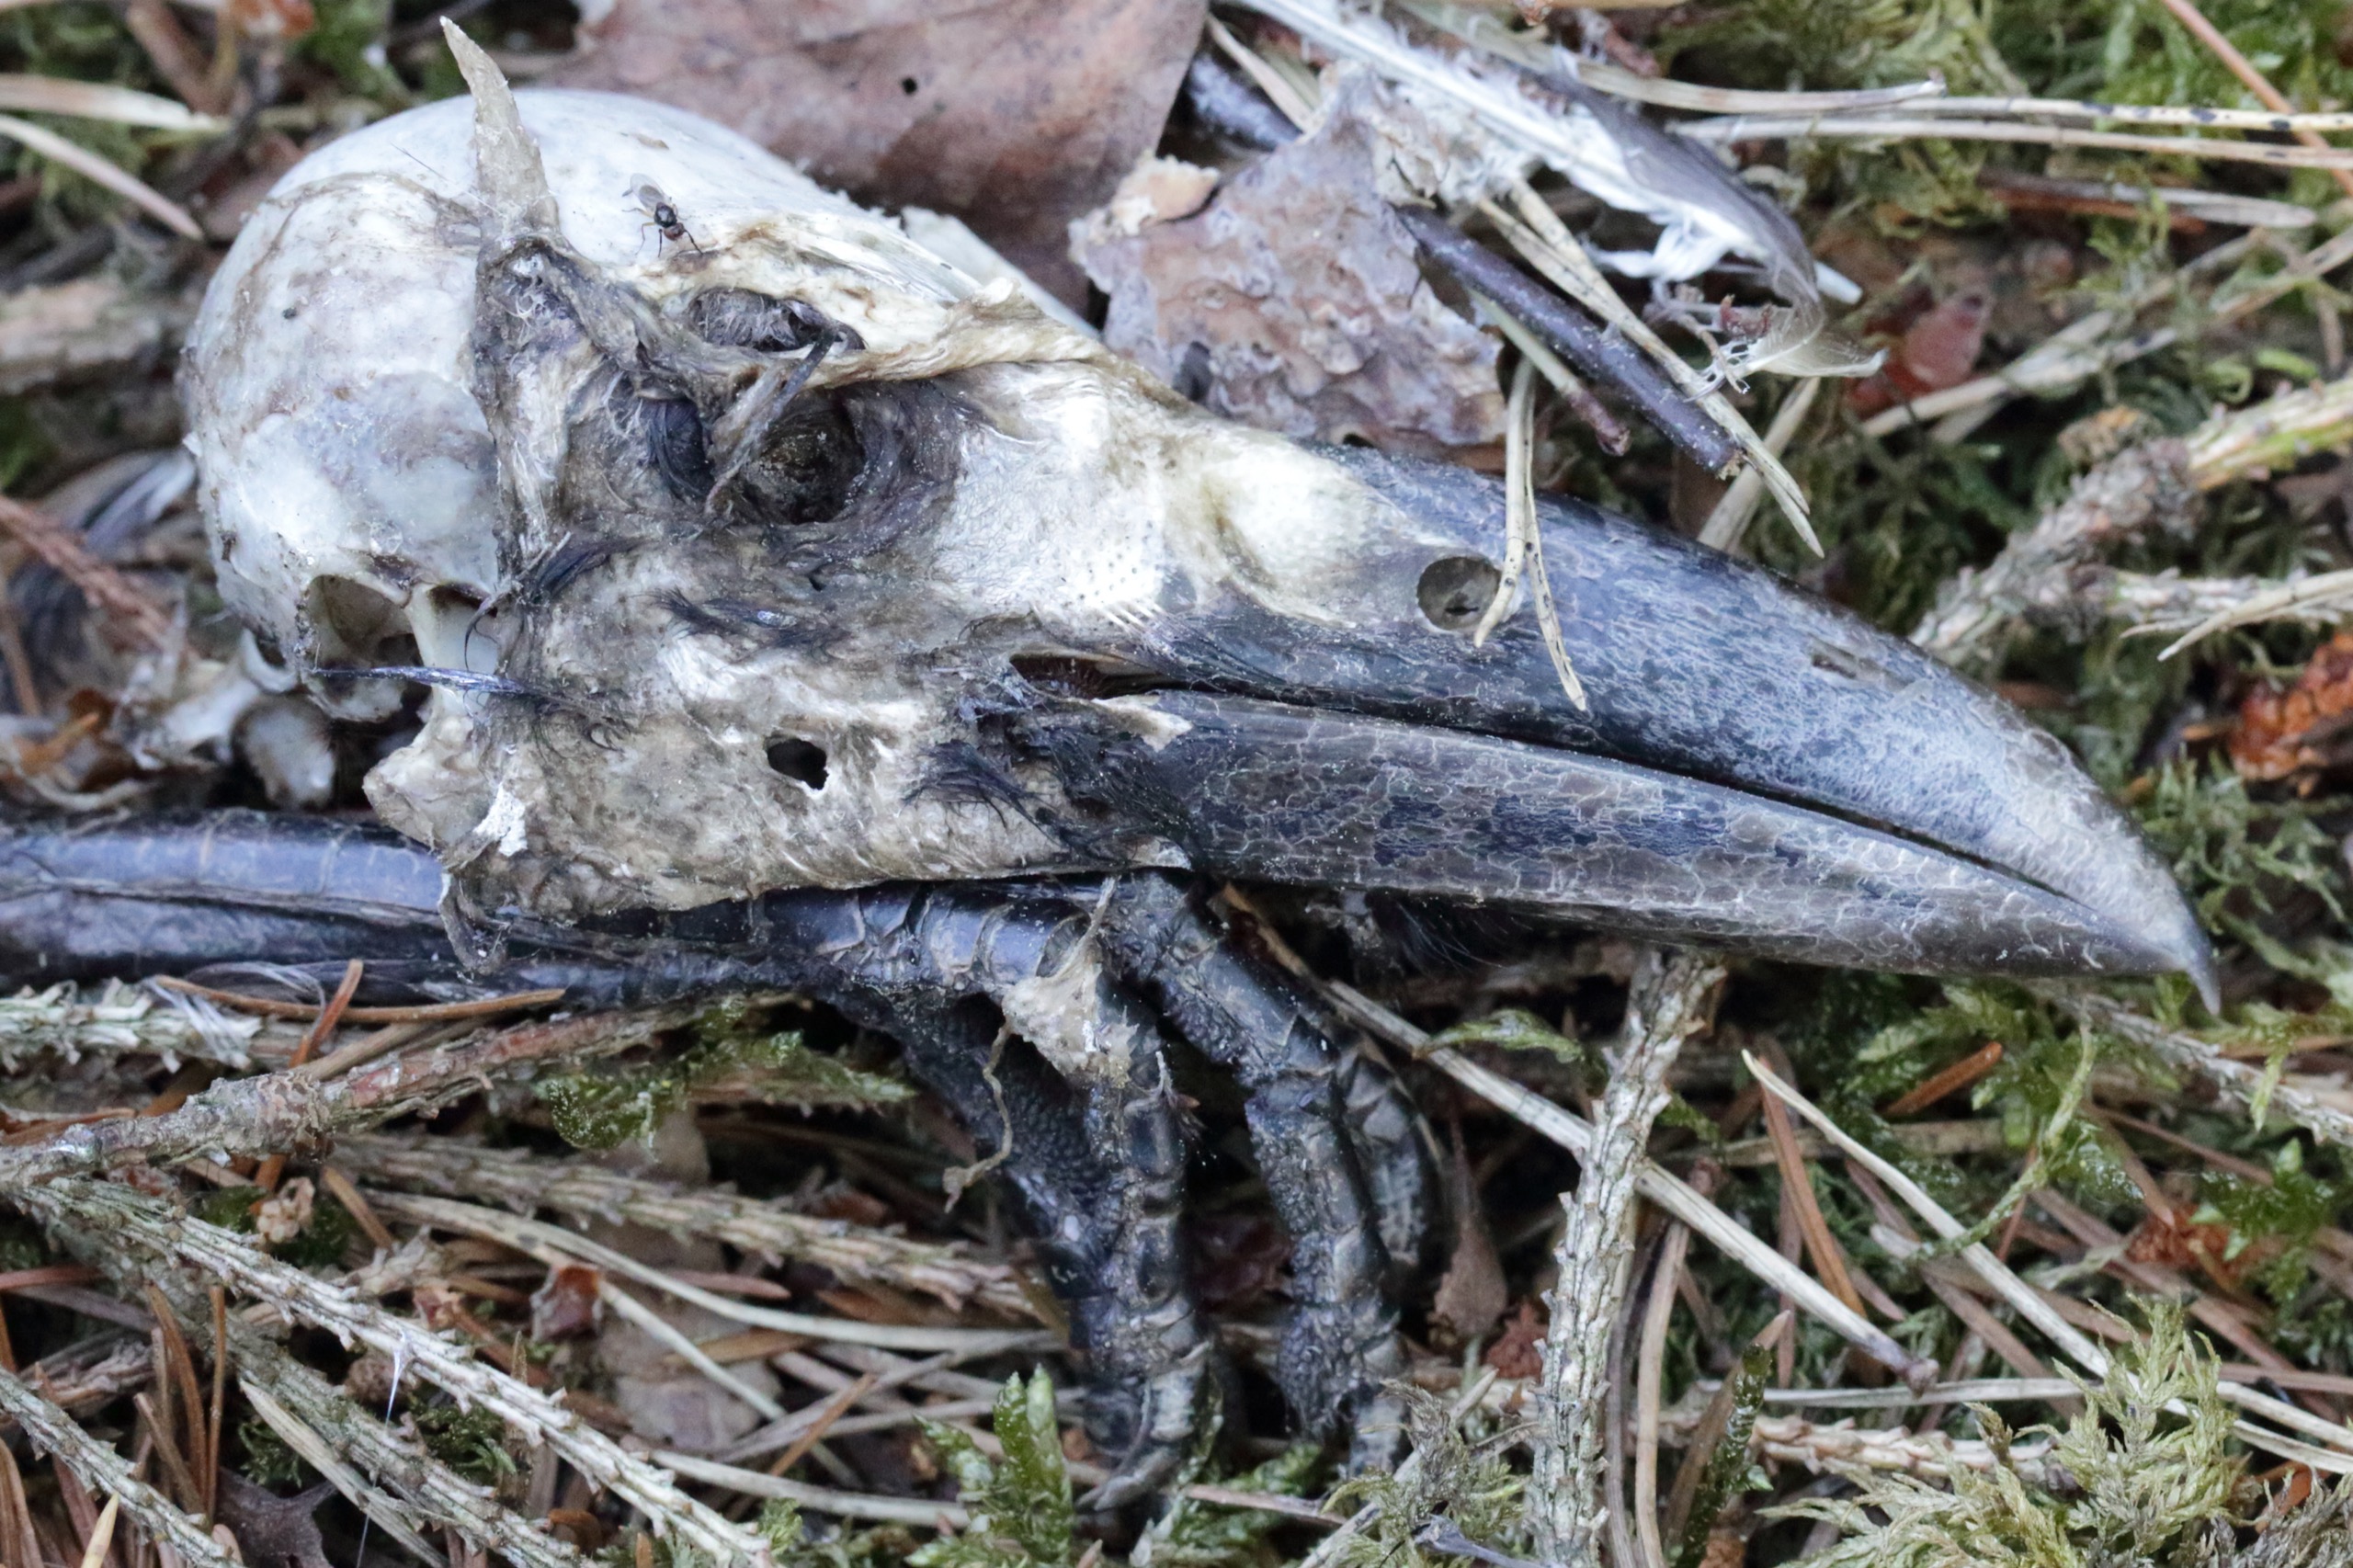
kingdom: Animalia
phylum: Chordata
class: Aves
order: Passeriformes
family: Corvidae
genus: Corvus
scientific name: Corvus cornix
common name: Gråkrage
